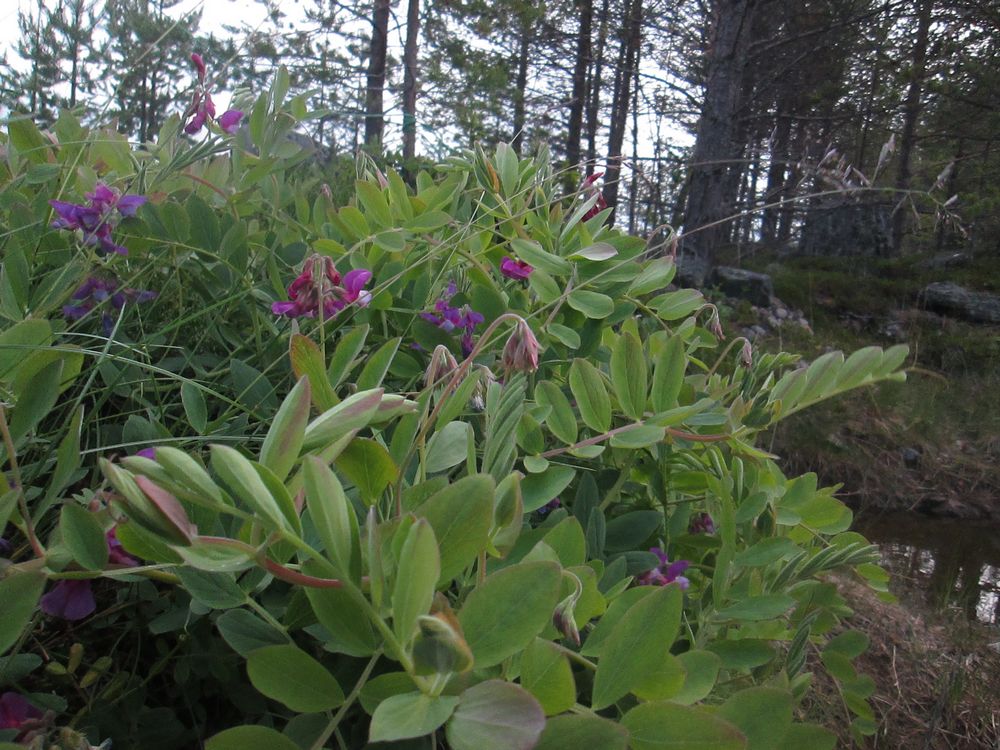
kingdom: Plantae
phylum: Tracheophyta
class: Magnoliopsida
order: Fabales
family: Fabaceae
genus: Lathyrus
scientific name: Lathyrus japonicus
